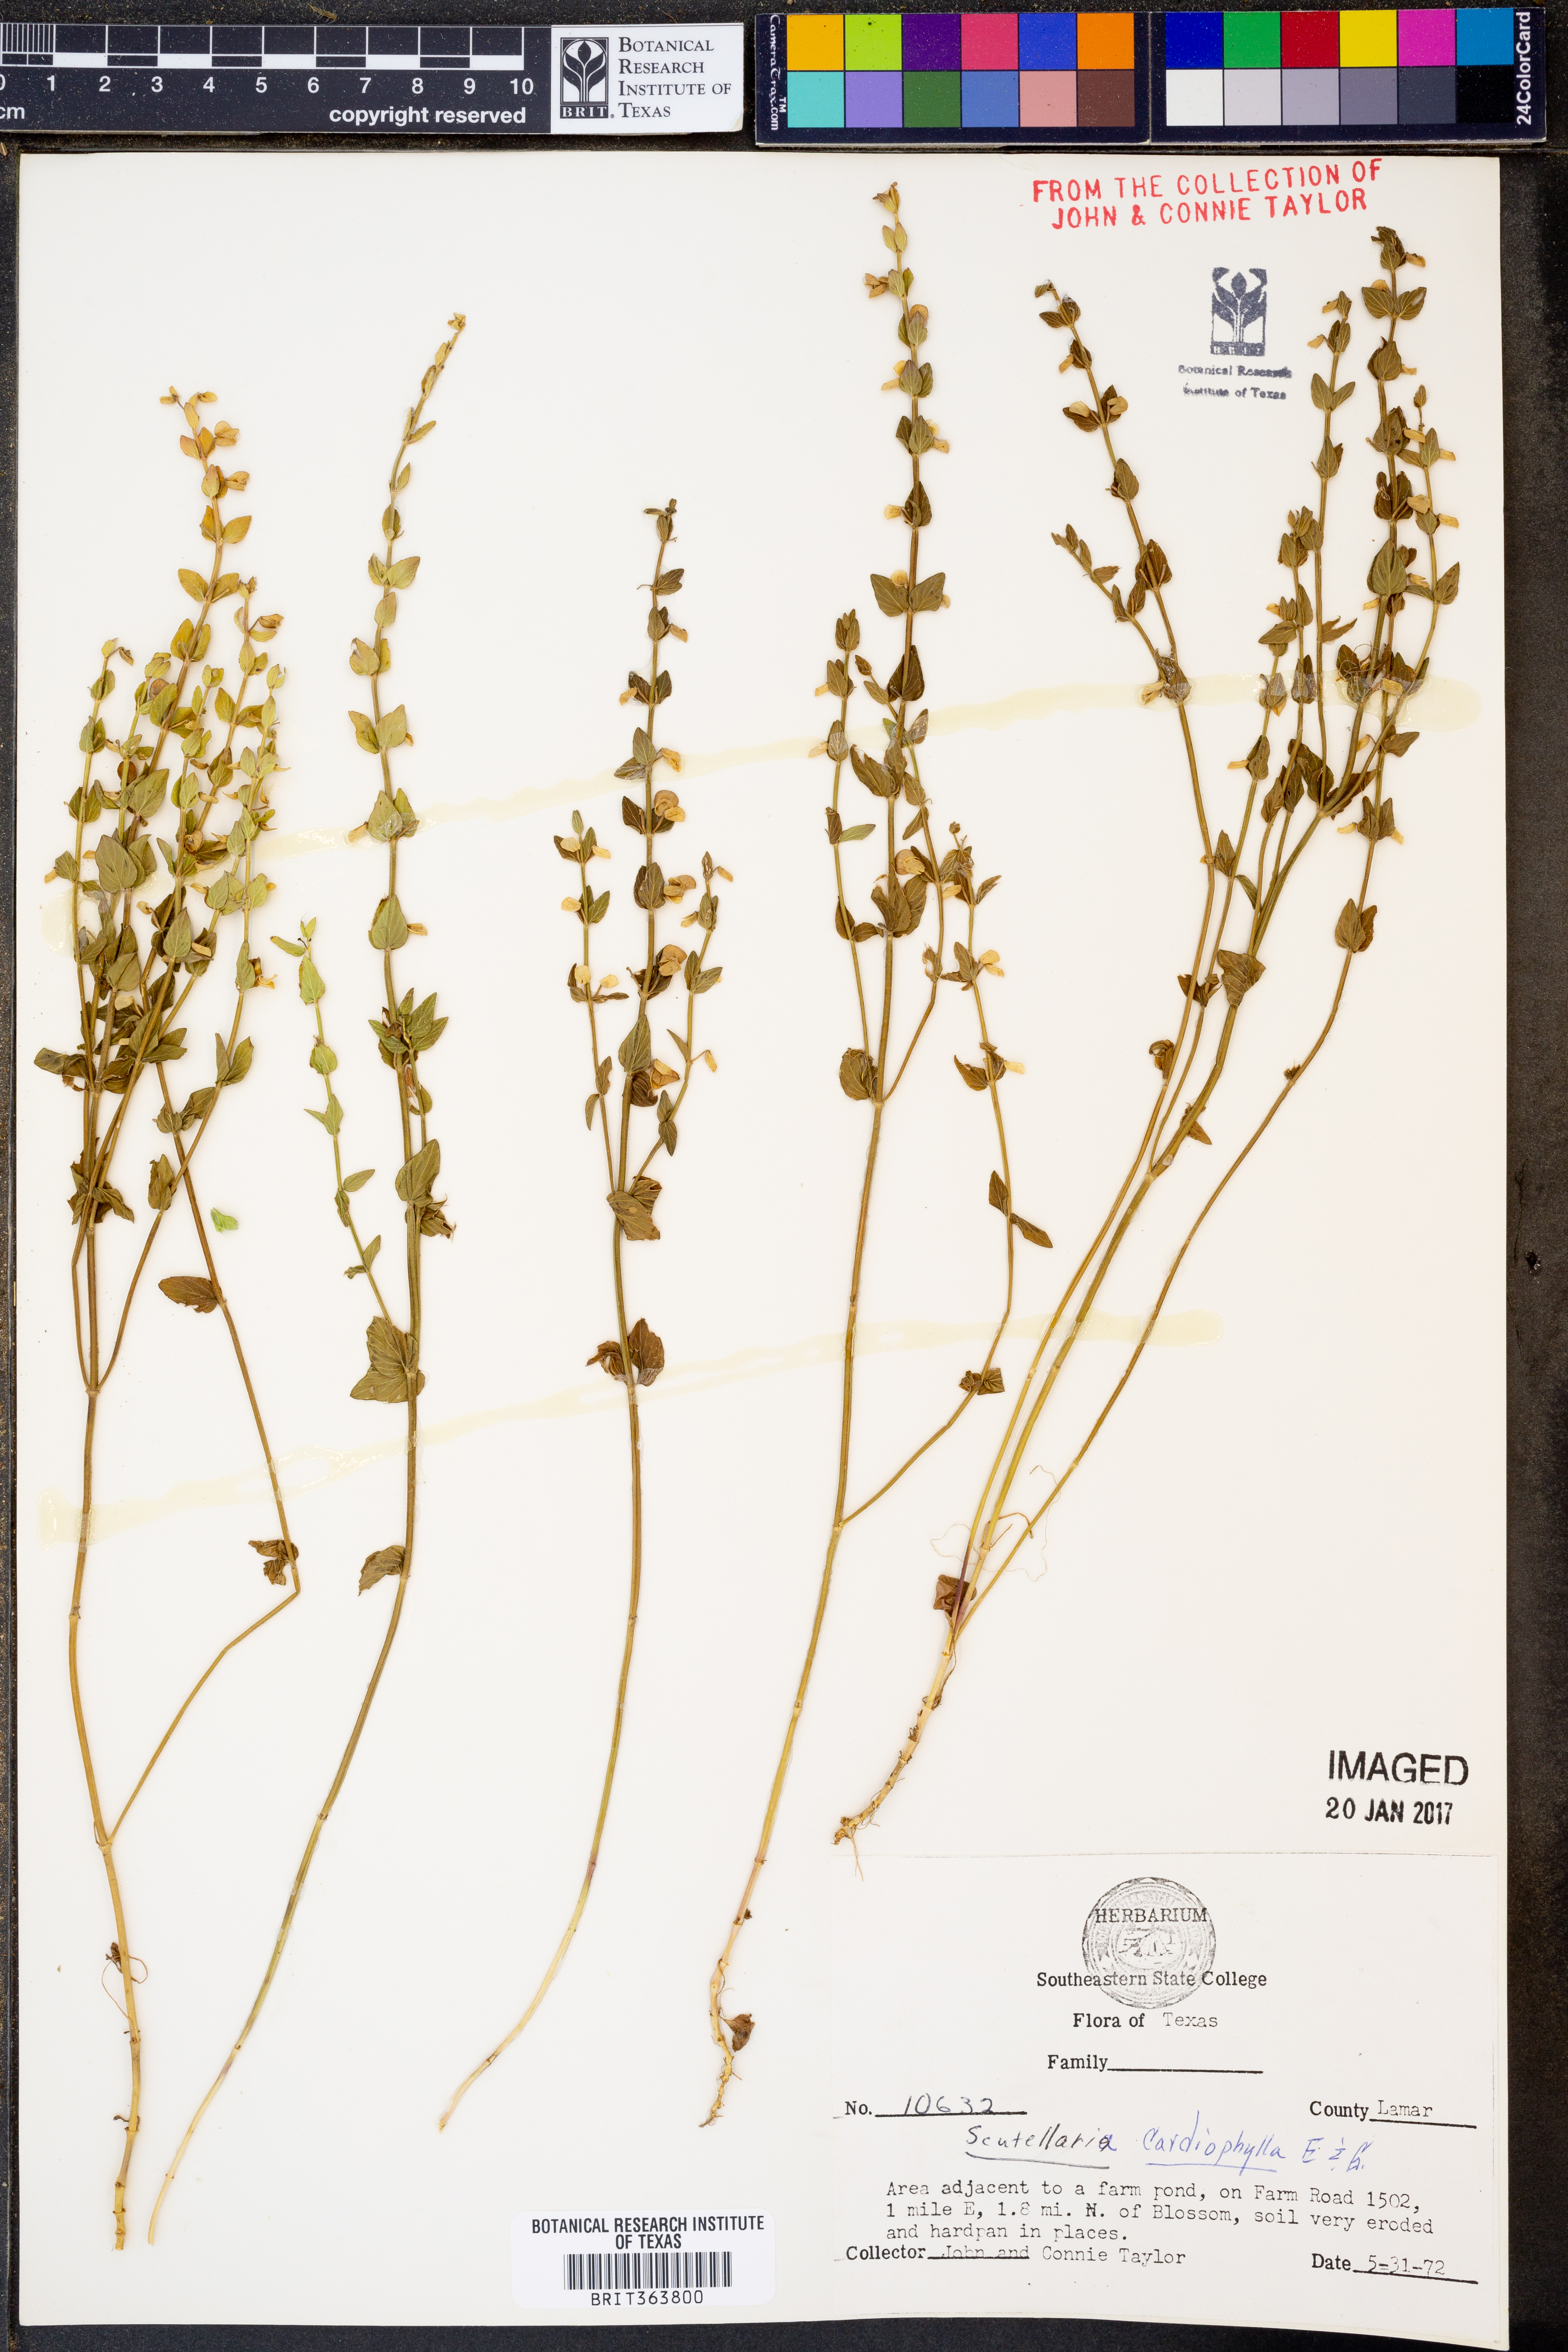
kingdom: Plantae
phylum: Tracheophyta
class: Magnoliopsida
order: Lamiales
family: Lamiaceae
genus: Scutellaria
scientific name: Scutellaria cardiophylla
